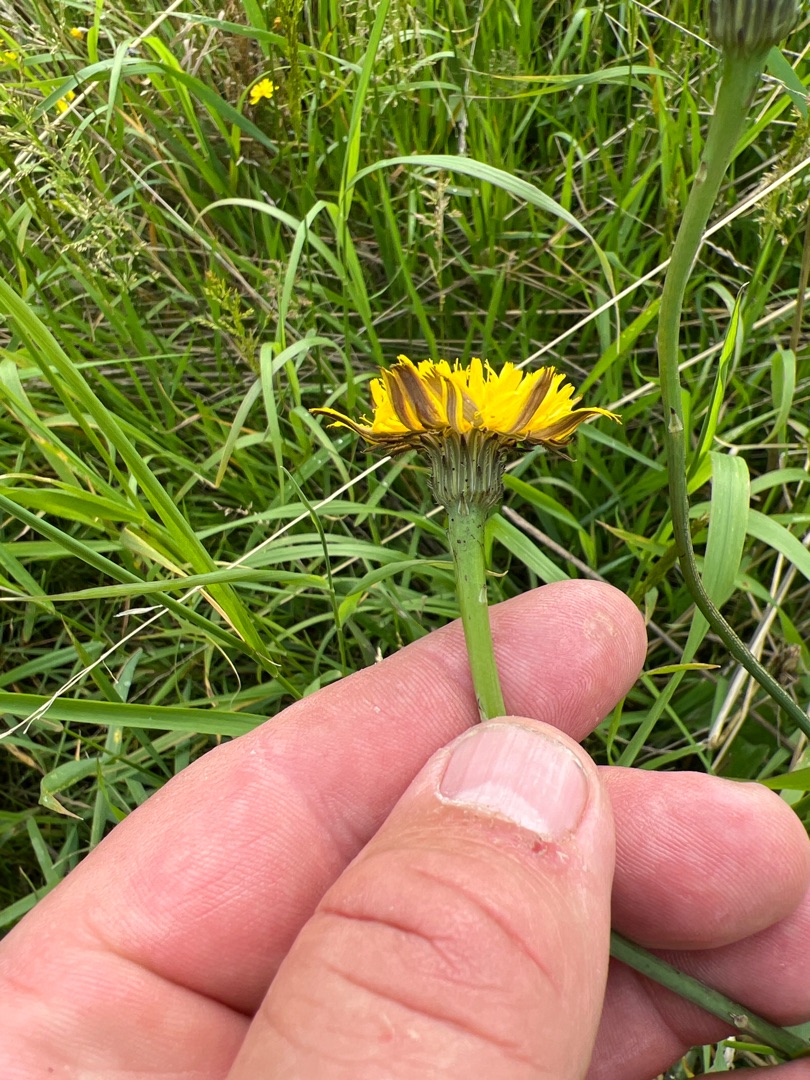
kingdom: Plantae
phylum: Tracheophyta
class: Magnoliopsida
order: Asterales
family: Asteraceae
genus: Hypochaeris
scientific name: Hypochaeris radicata
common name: Almindelig kongepen
